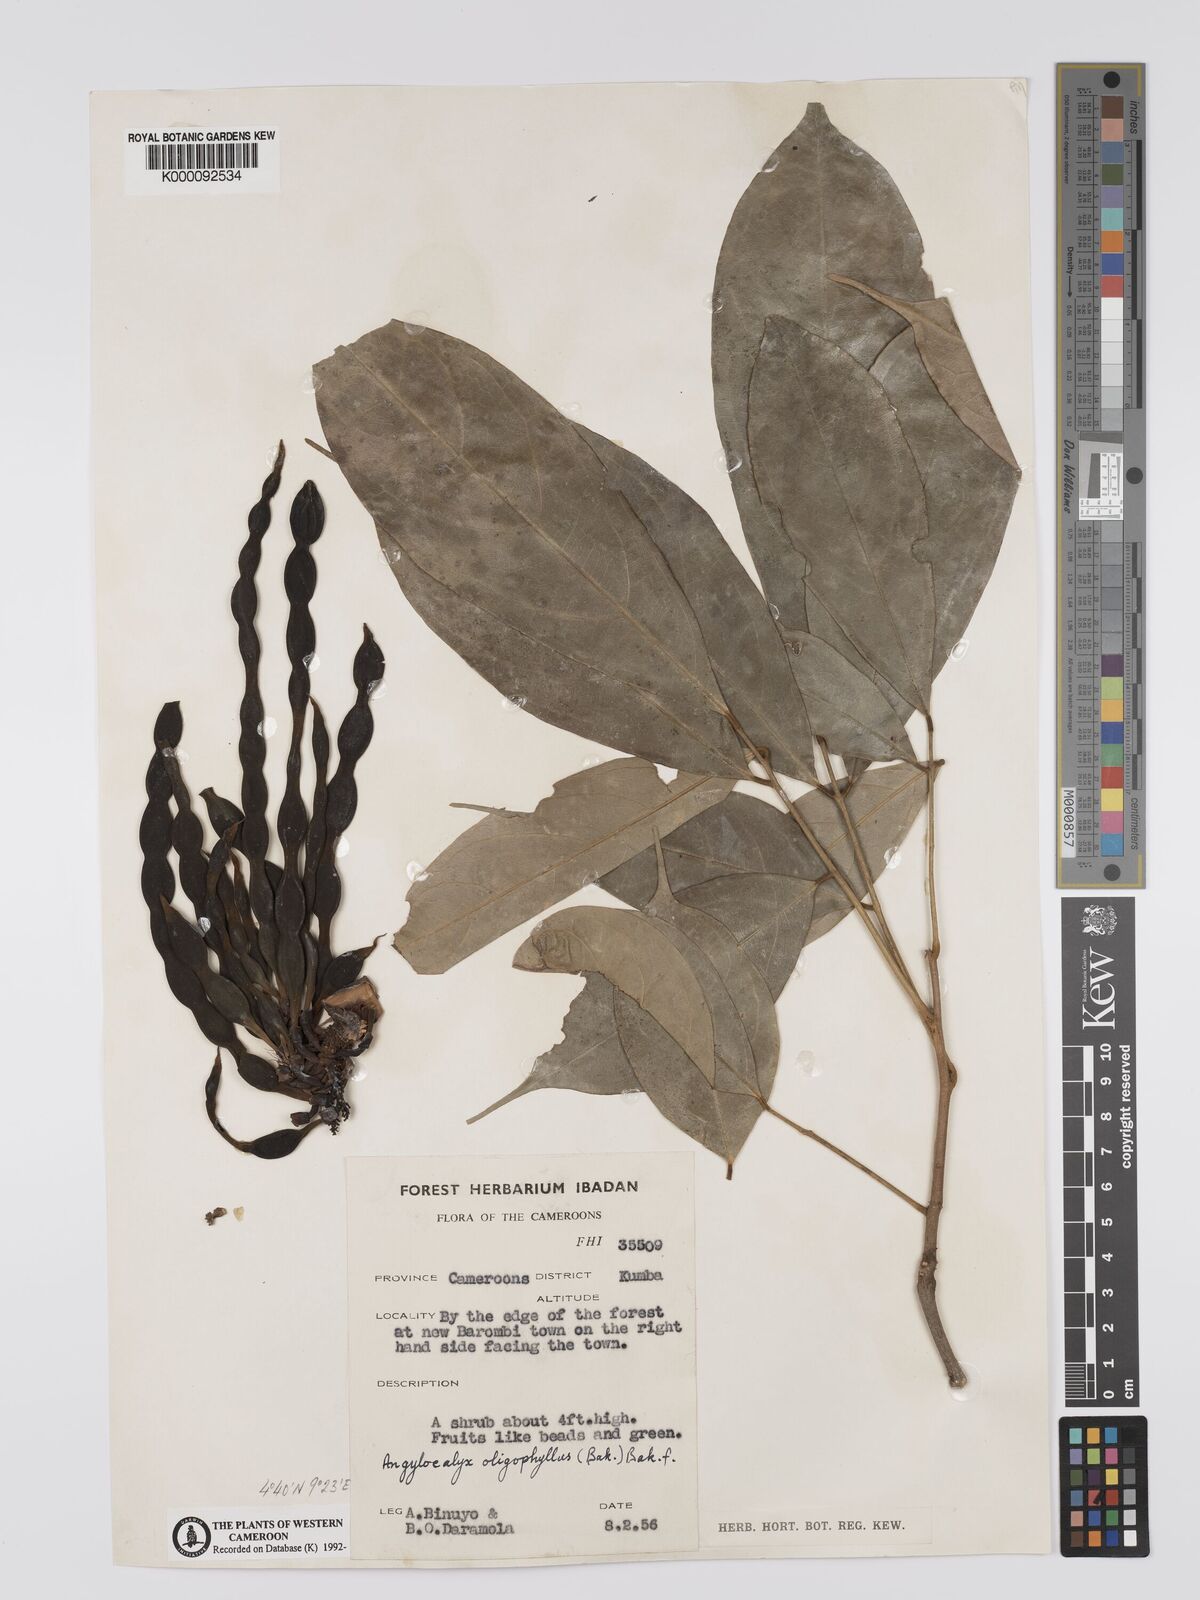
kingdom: Plantae
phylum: Tracheophyta
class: Magnoliopsida
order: Fabales
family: Fabaceae
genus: Angylocalyx
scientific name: Angylocalyx oligophyllus
